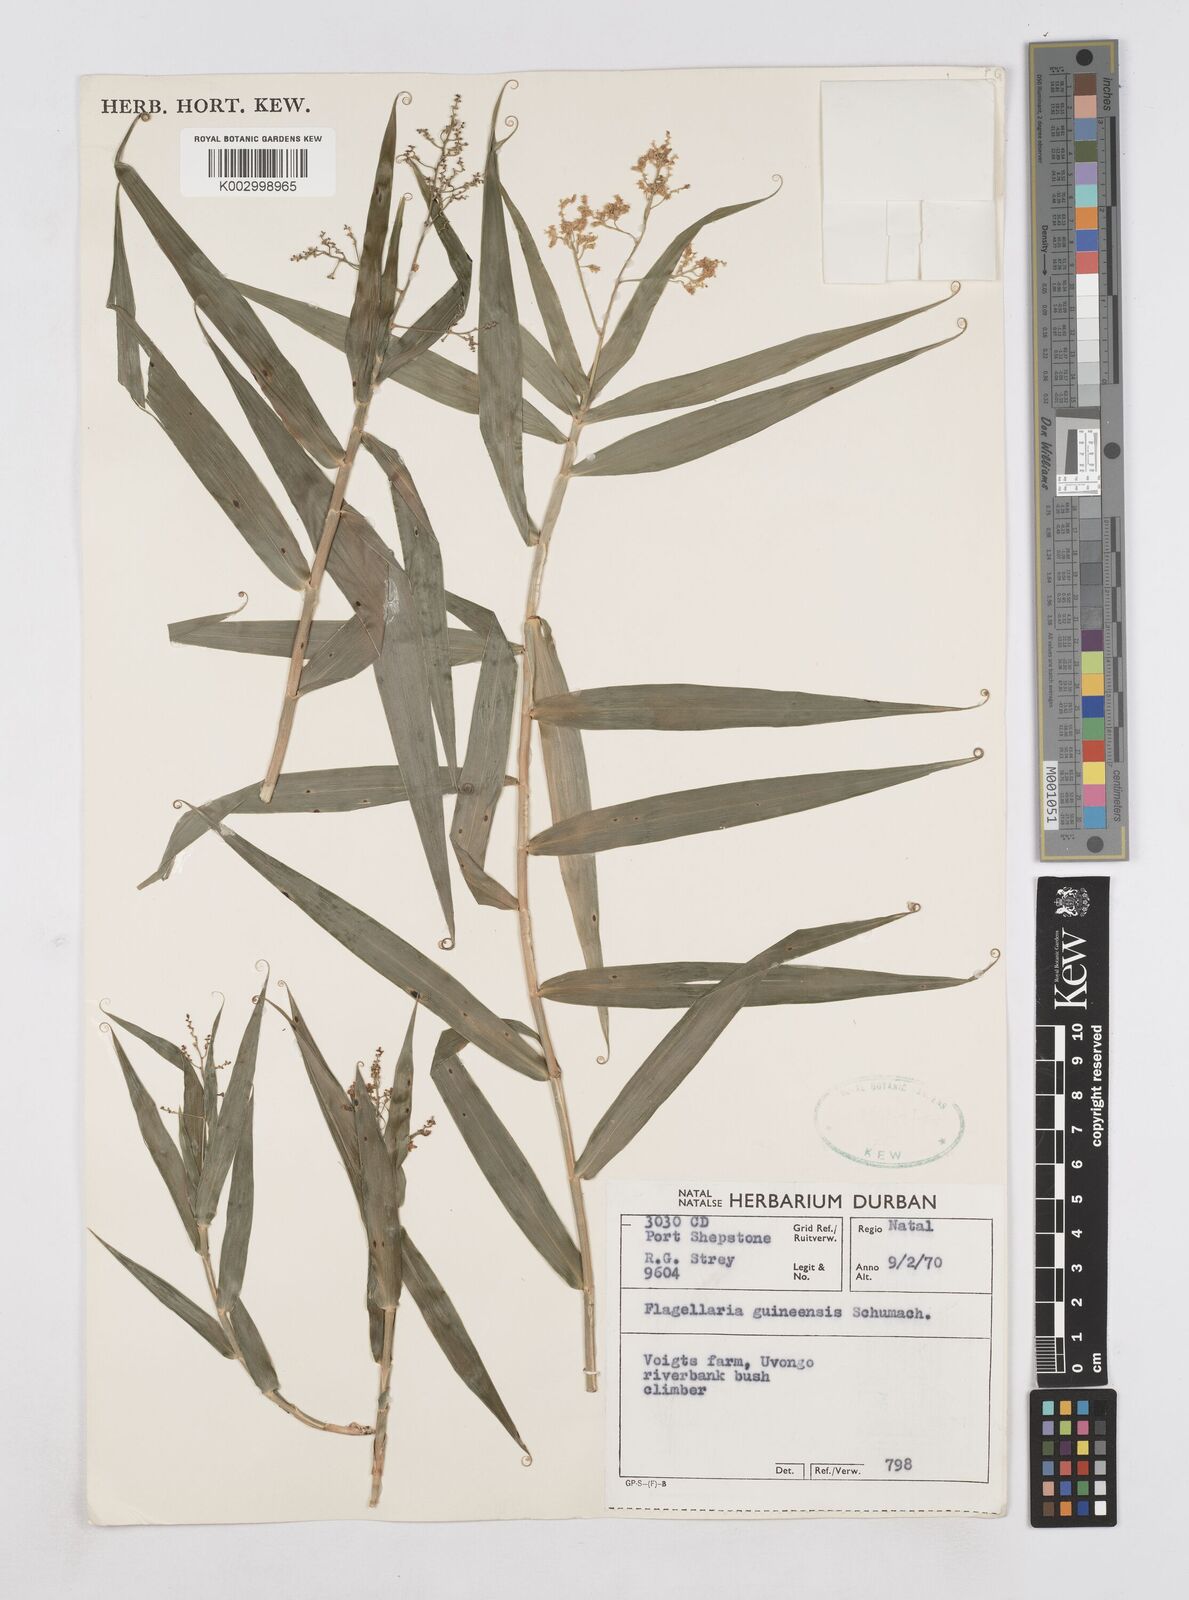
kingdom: Plantae
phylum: Tracheophyta
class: Liliopsida
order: Poales
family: Flagellariaceae
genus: Flagellaria
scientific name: Flagellaria guineensis
